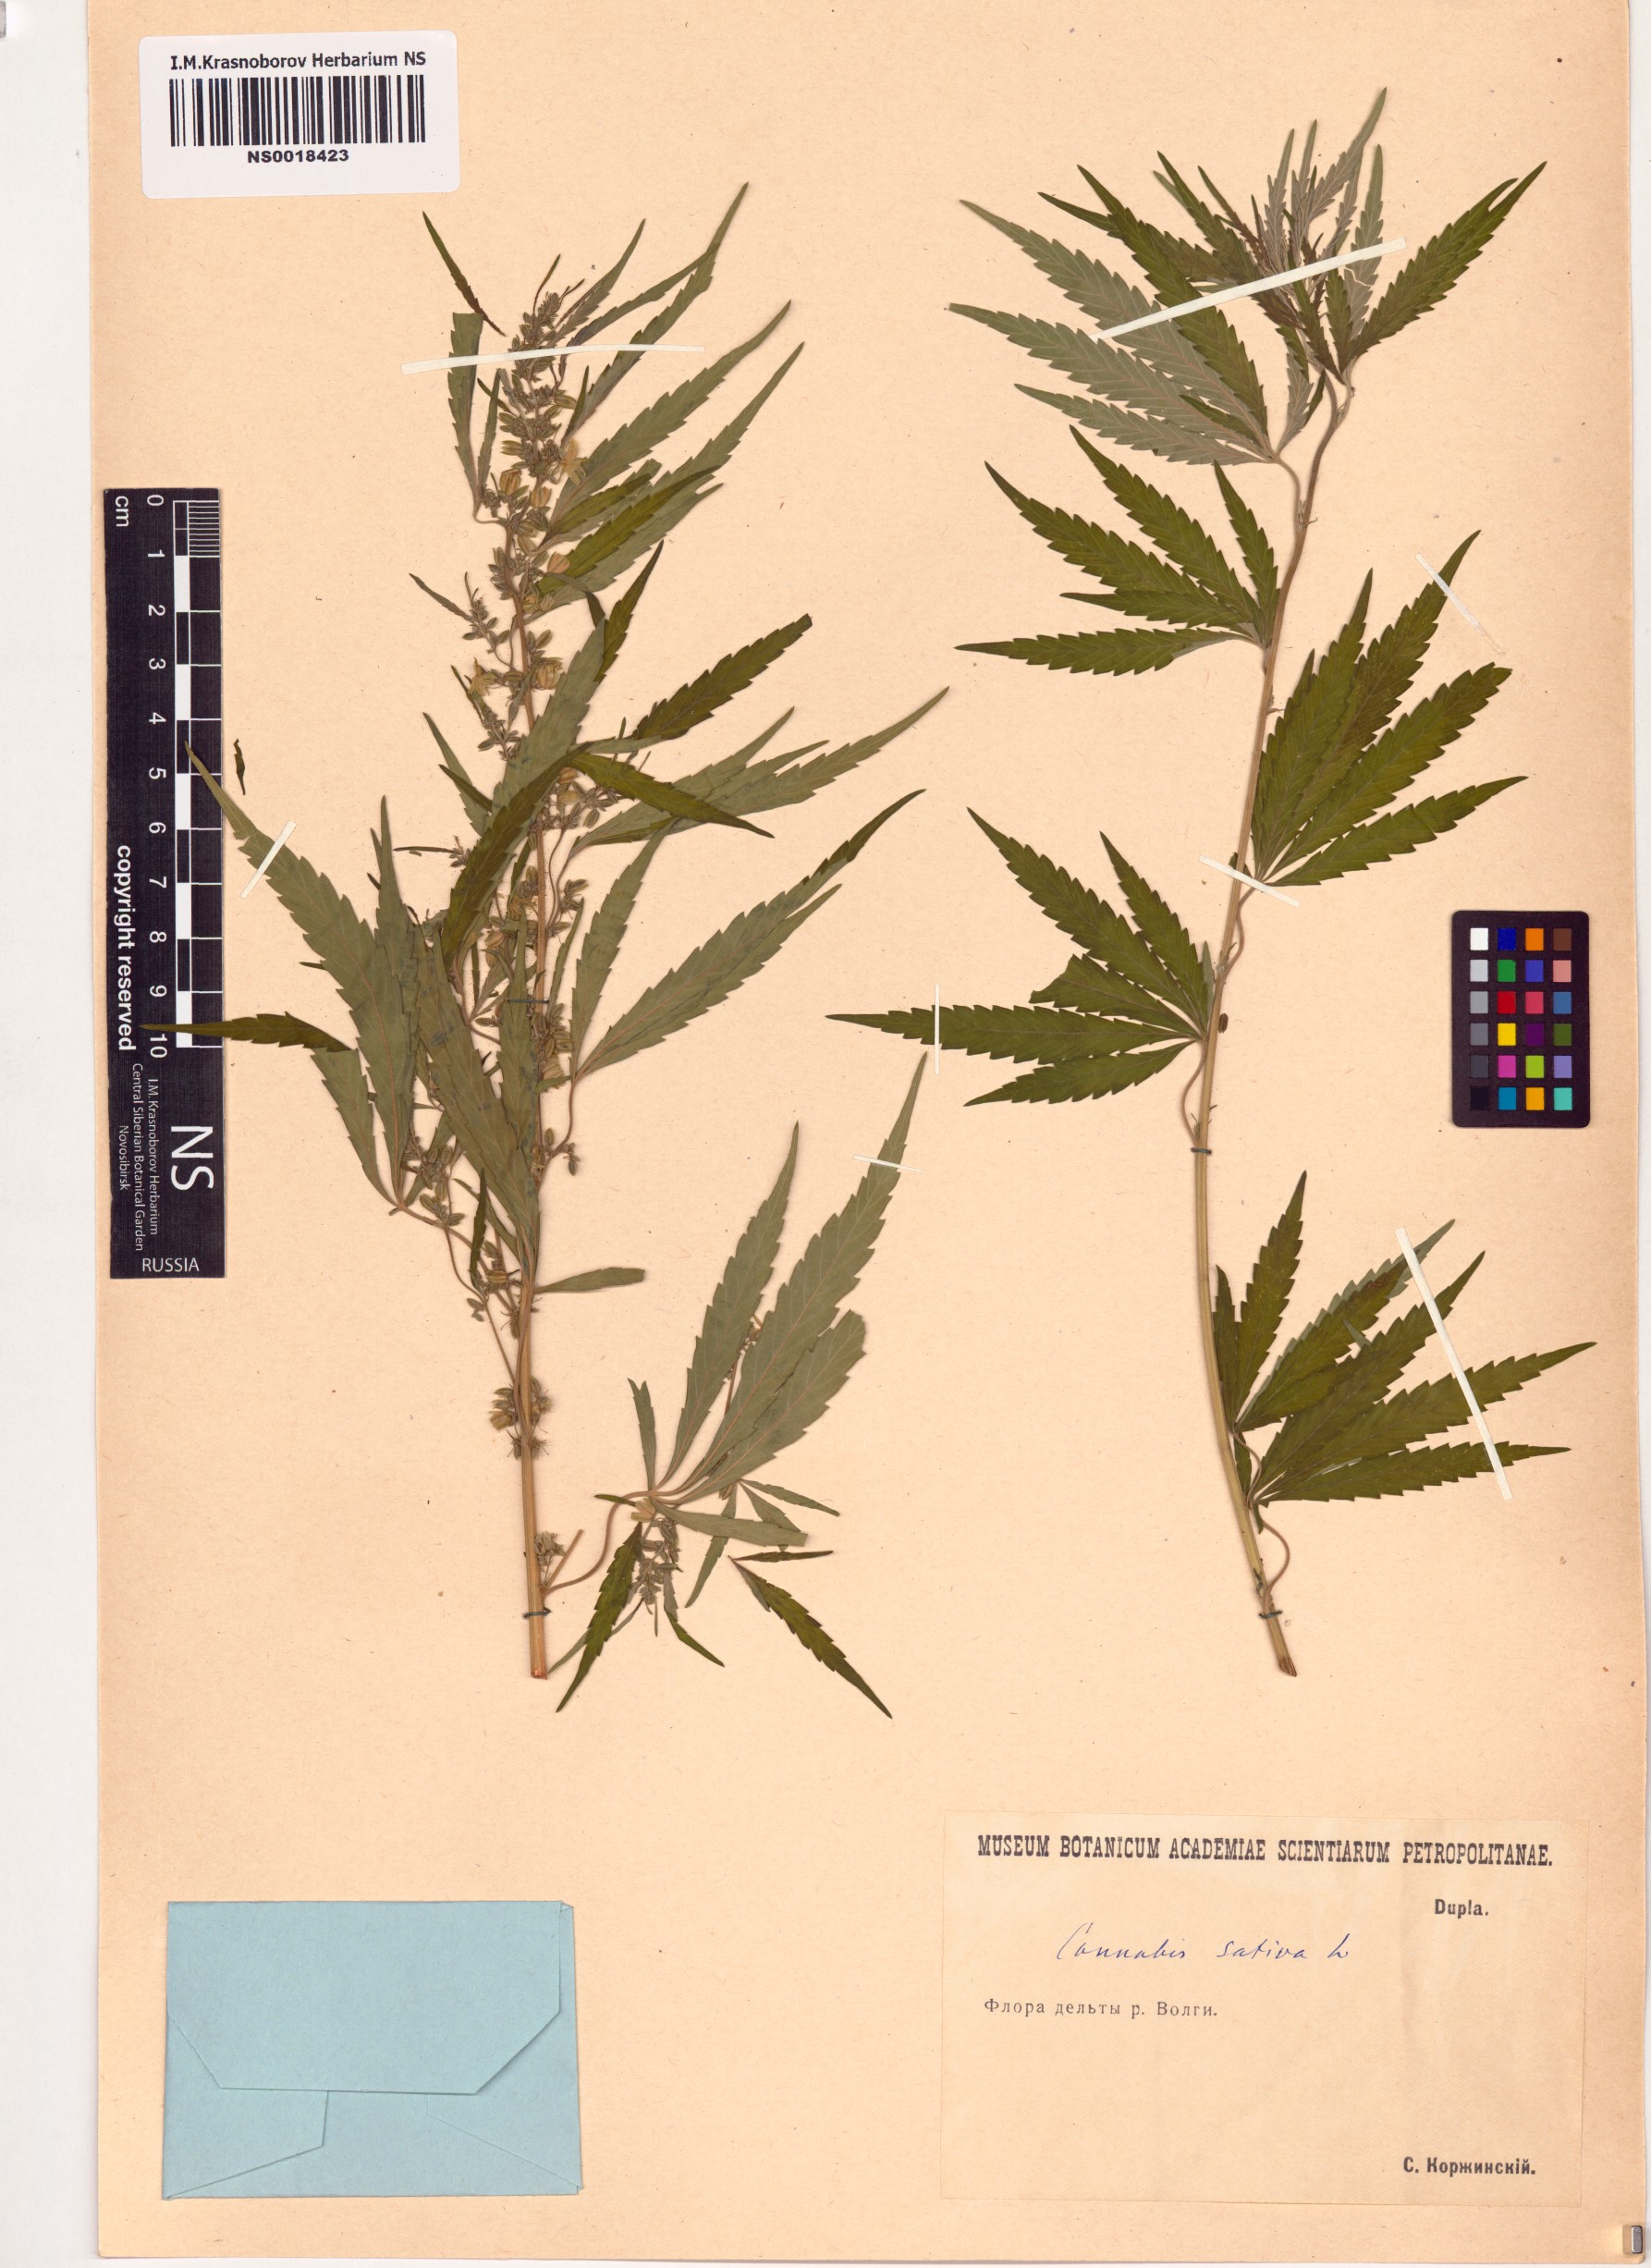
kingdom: Plantae
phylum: Tracheophyta
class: Magnoliopsida
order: Rosales
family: Cannabaceae
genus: Cannabis
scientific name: Cannabis sativa
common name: Hemp
